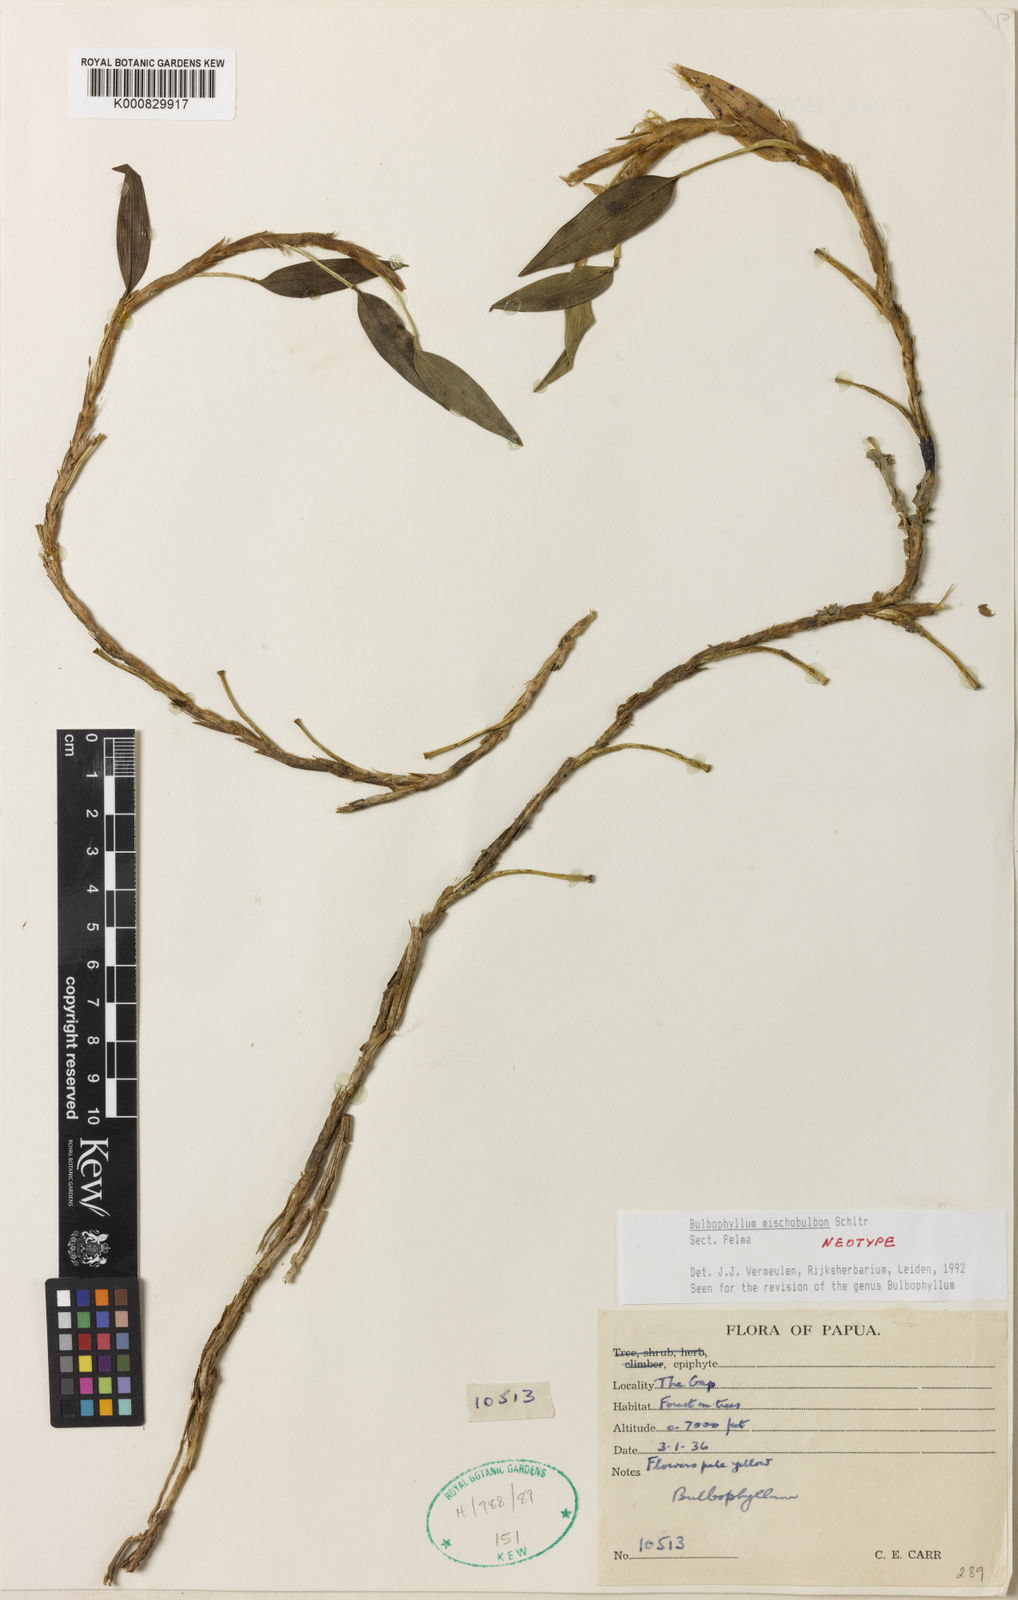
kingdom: Plantae
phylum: Tracheophyta
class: Liliopsida
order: Asparagales
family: Orchidaceae
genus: Bulbophyllum
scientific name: Bulbophyllum
